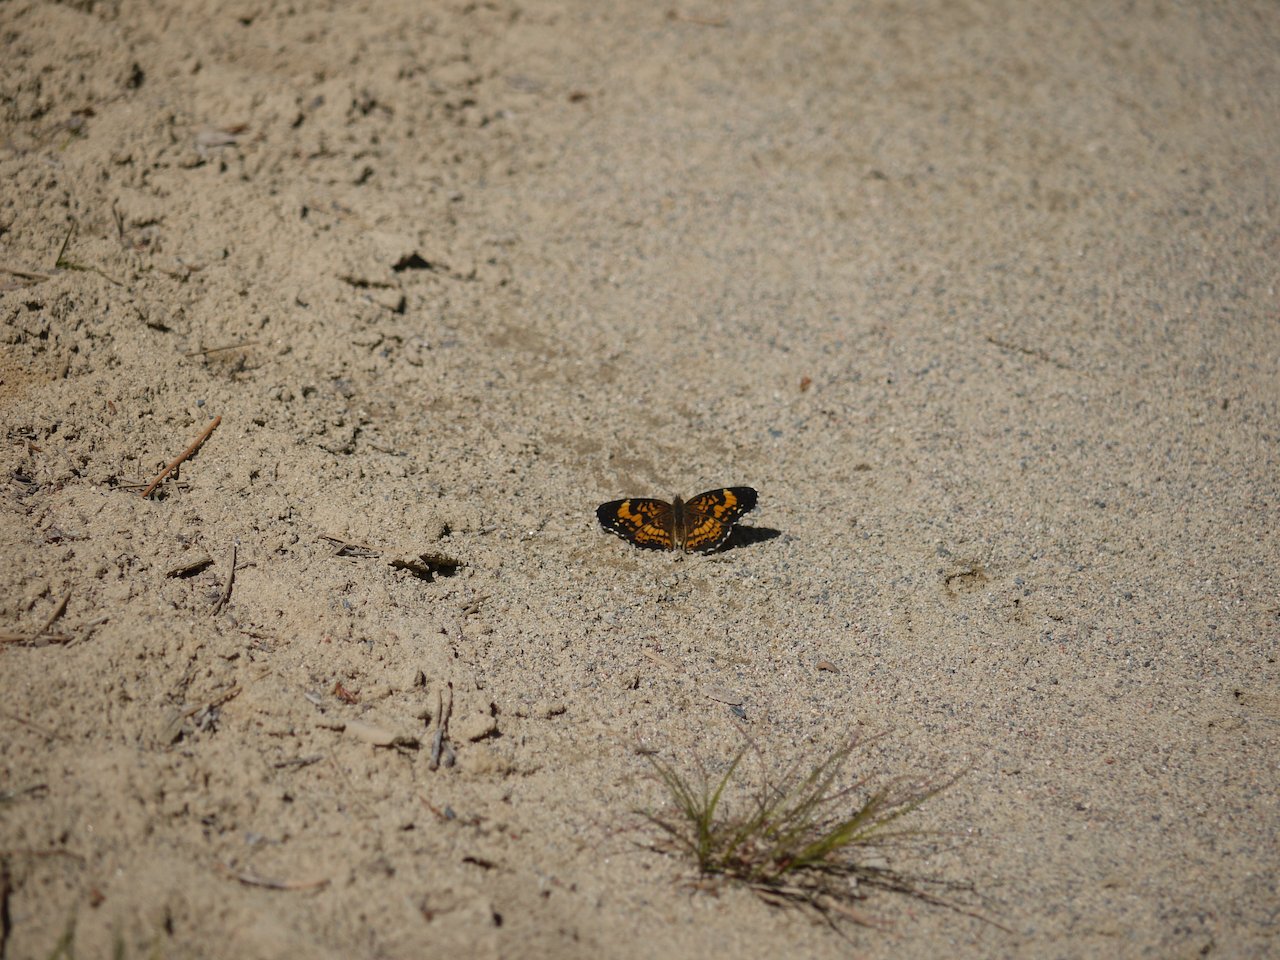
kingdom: Animalia
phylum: Arthropoda
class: Insecta
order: Lepidoptera
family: Nymphalidae
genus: Chlosyne
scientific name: Chlosyne nycteis
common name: Silvery Checkerspot
